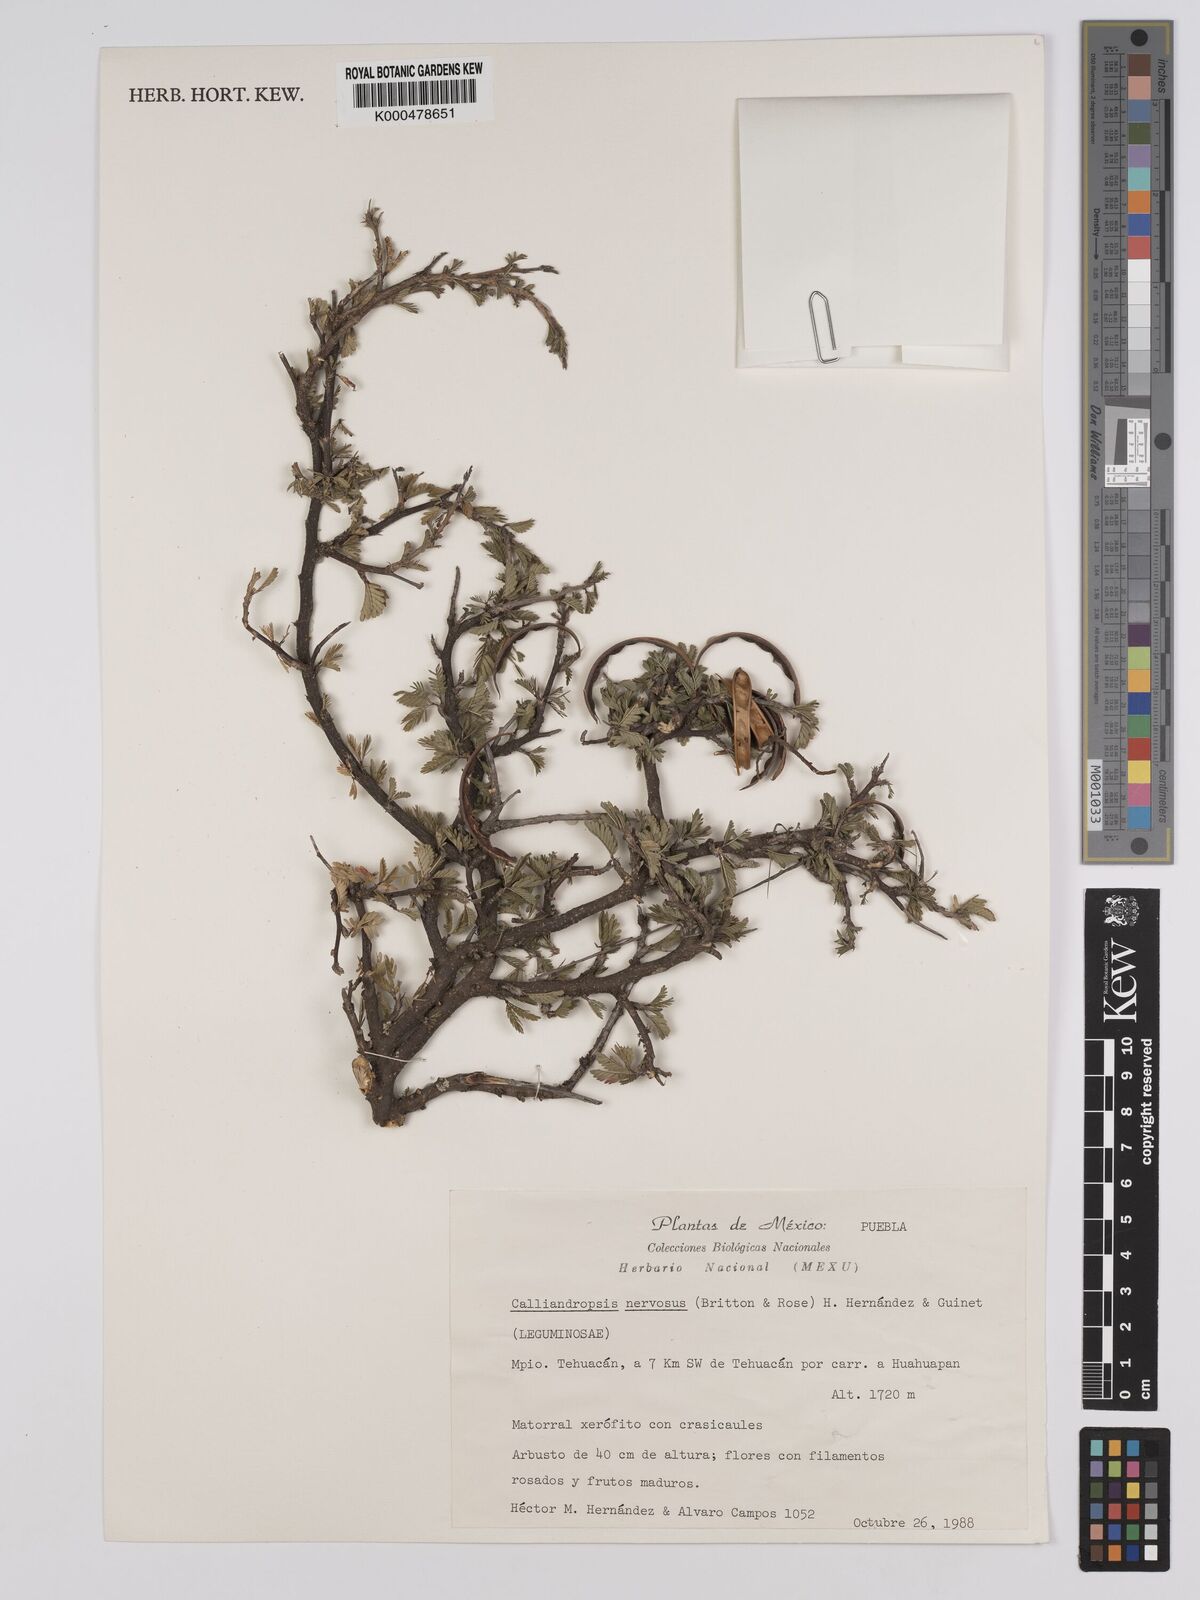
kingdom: Plantae
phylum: Tracheophyta
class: Magnoliopsida
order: Fabales
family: Fabaceae
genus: Calliandropsis
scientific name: Calliandropsis nervosa
